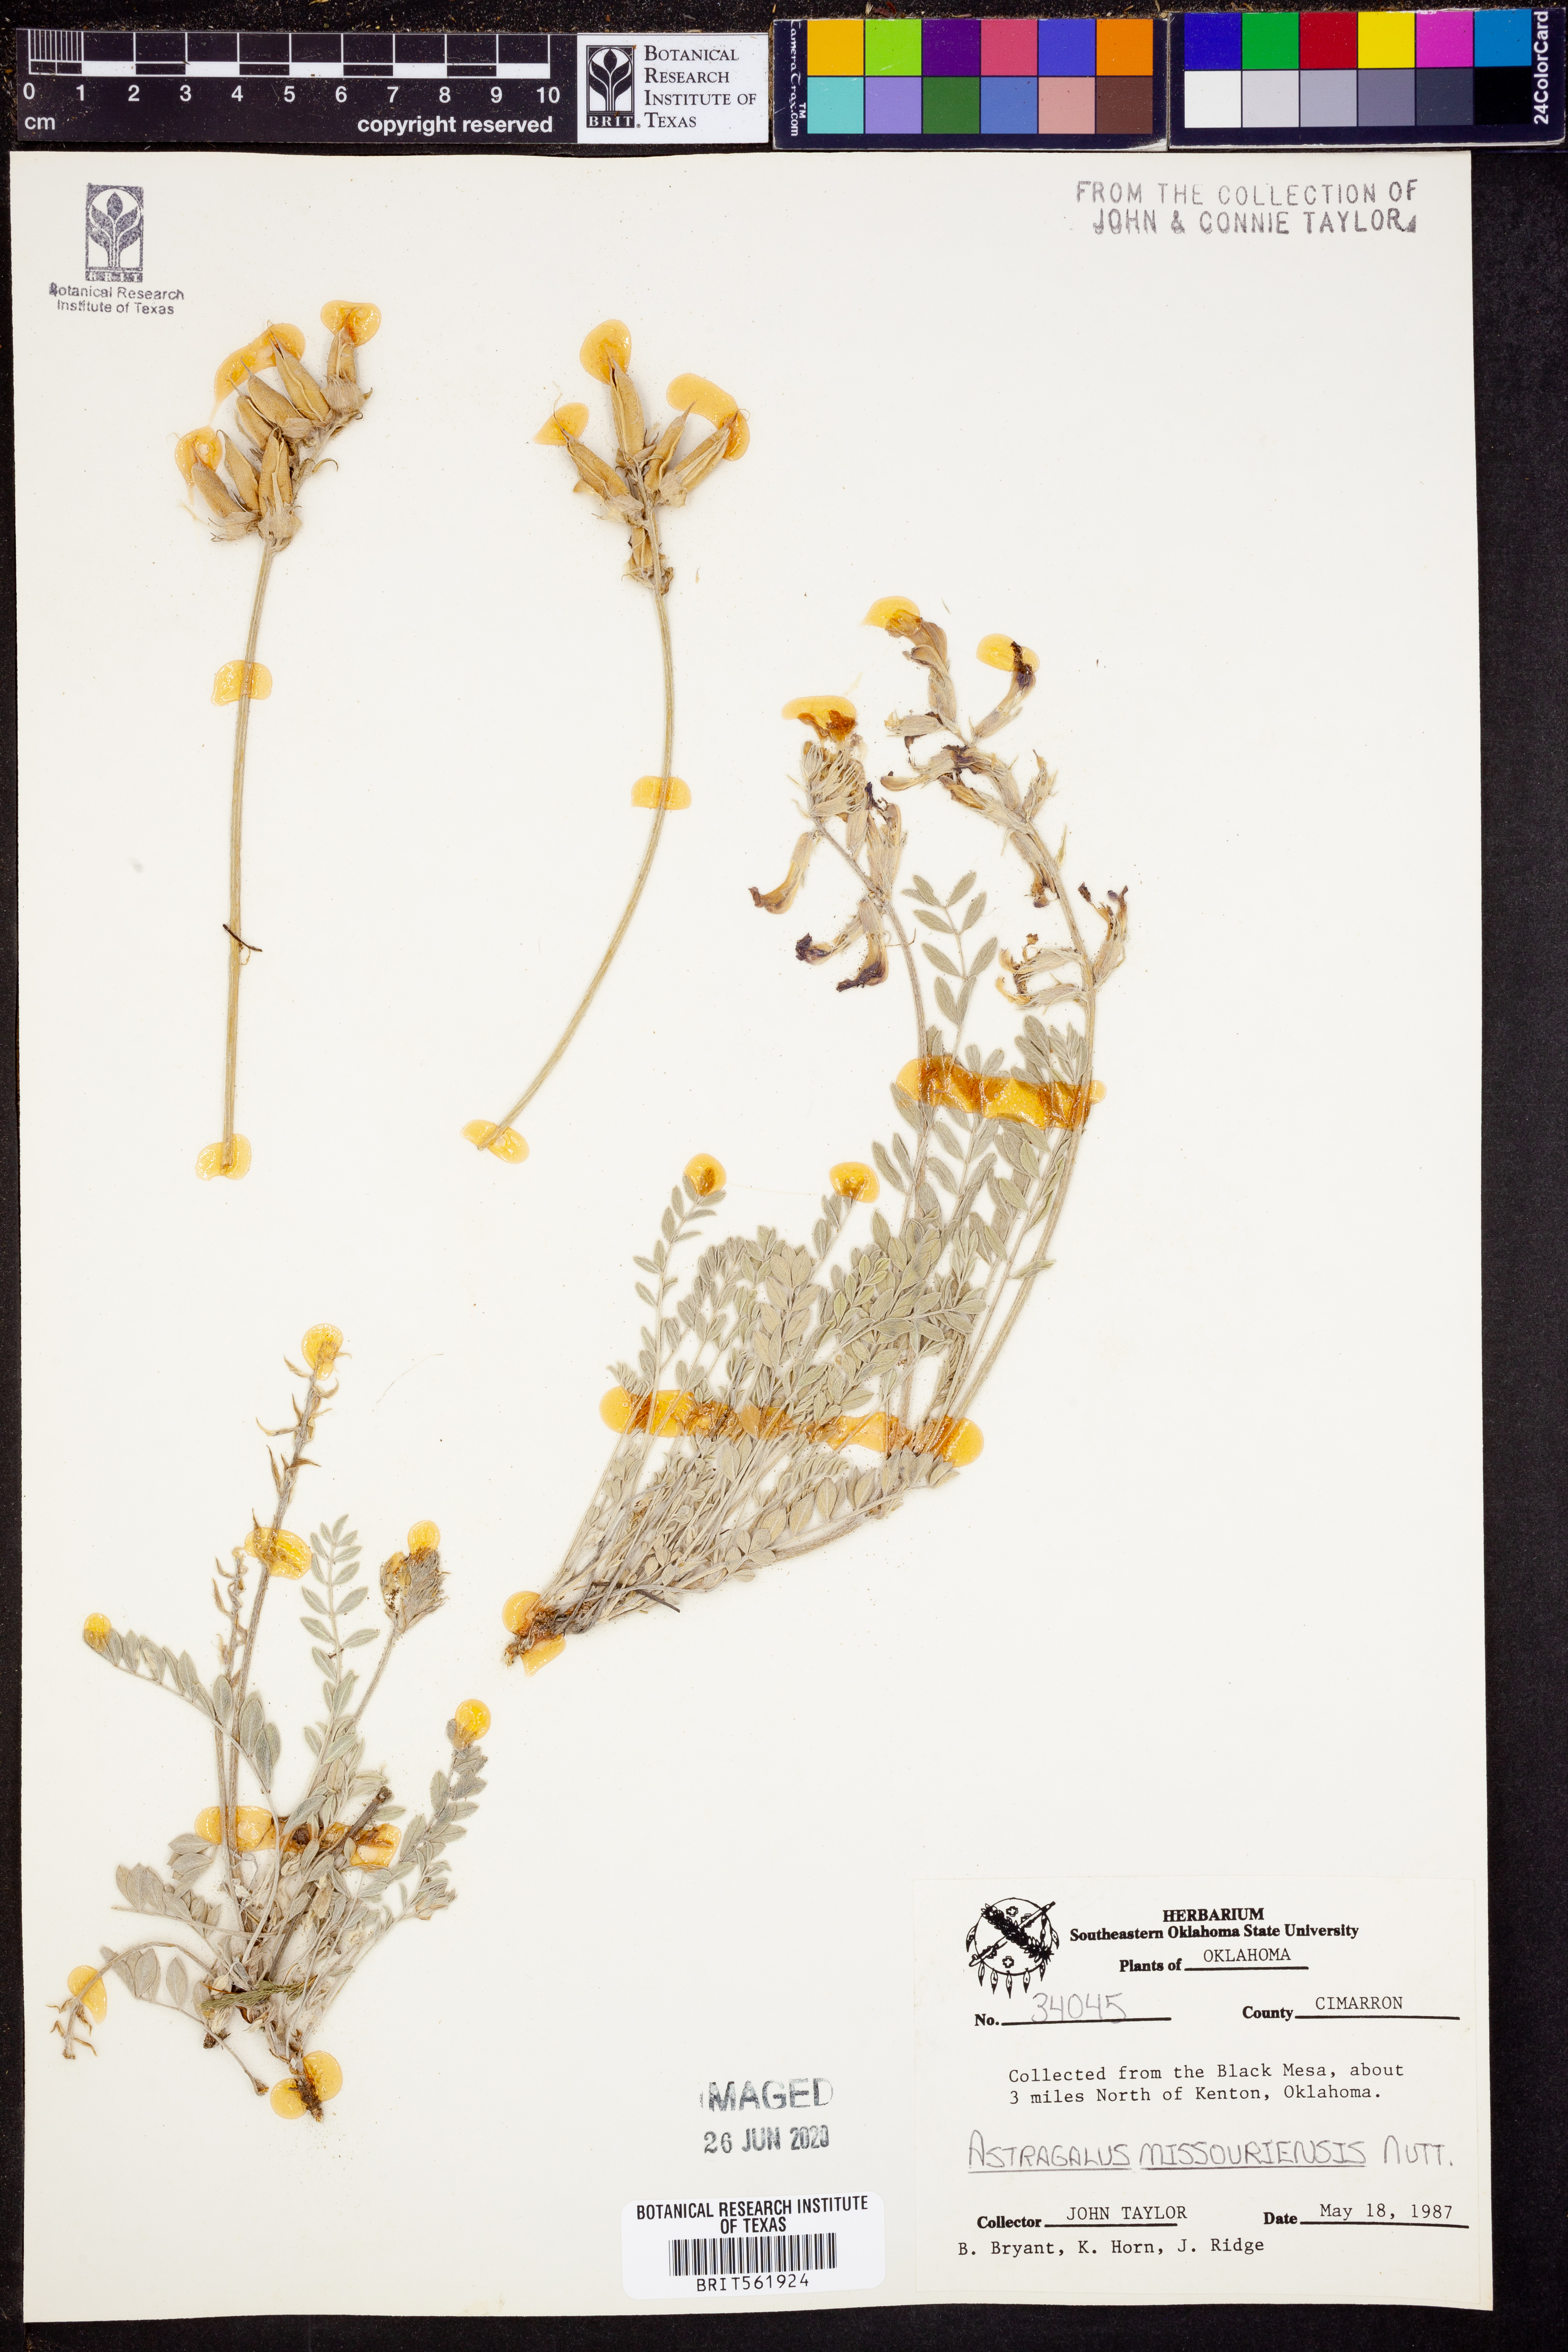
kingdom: Plantae
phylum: Tracheophyta
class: Magnoliopsida
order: Fabales
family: Fabaceae
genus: Astragalus
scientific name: Astragalus missouriensis
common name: Missouri milk-vetch
